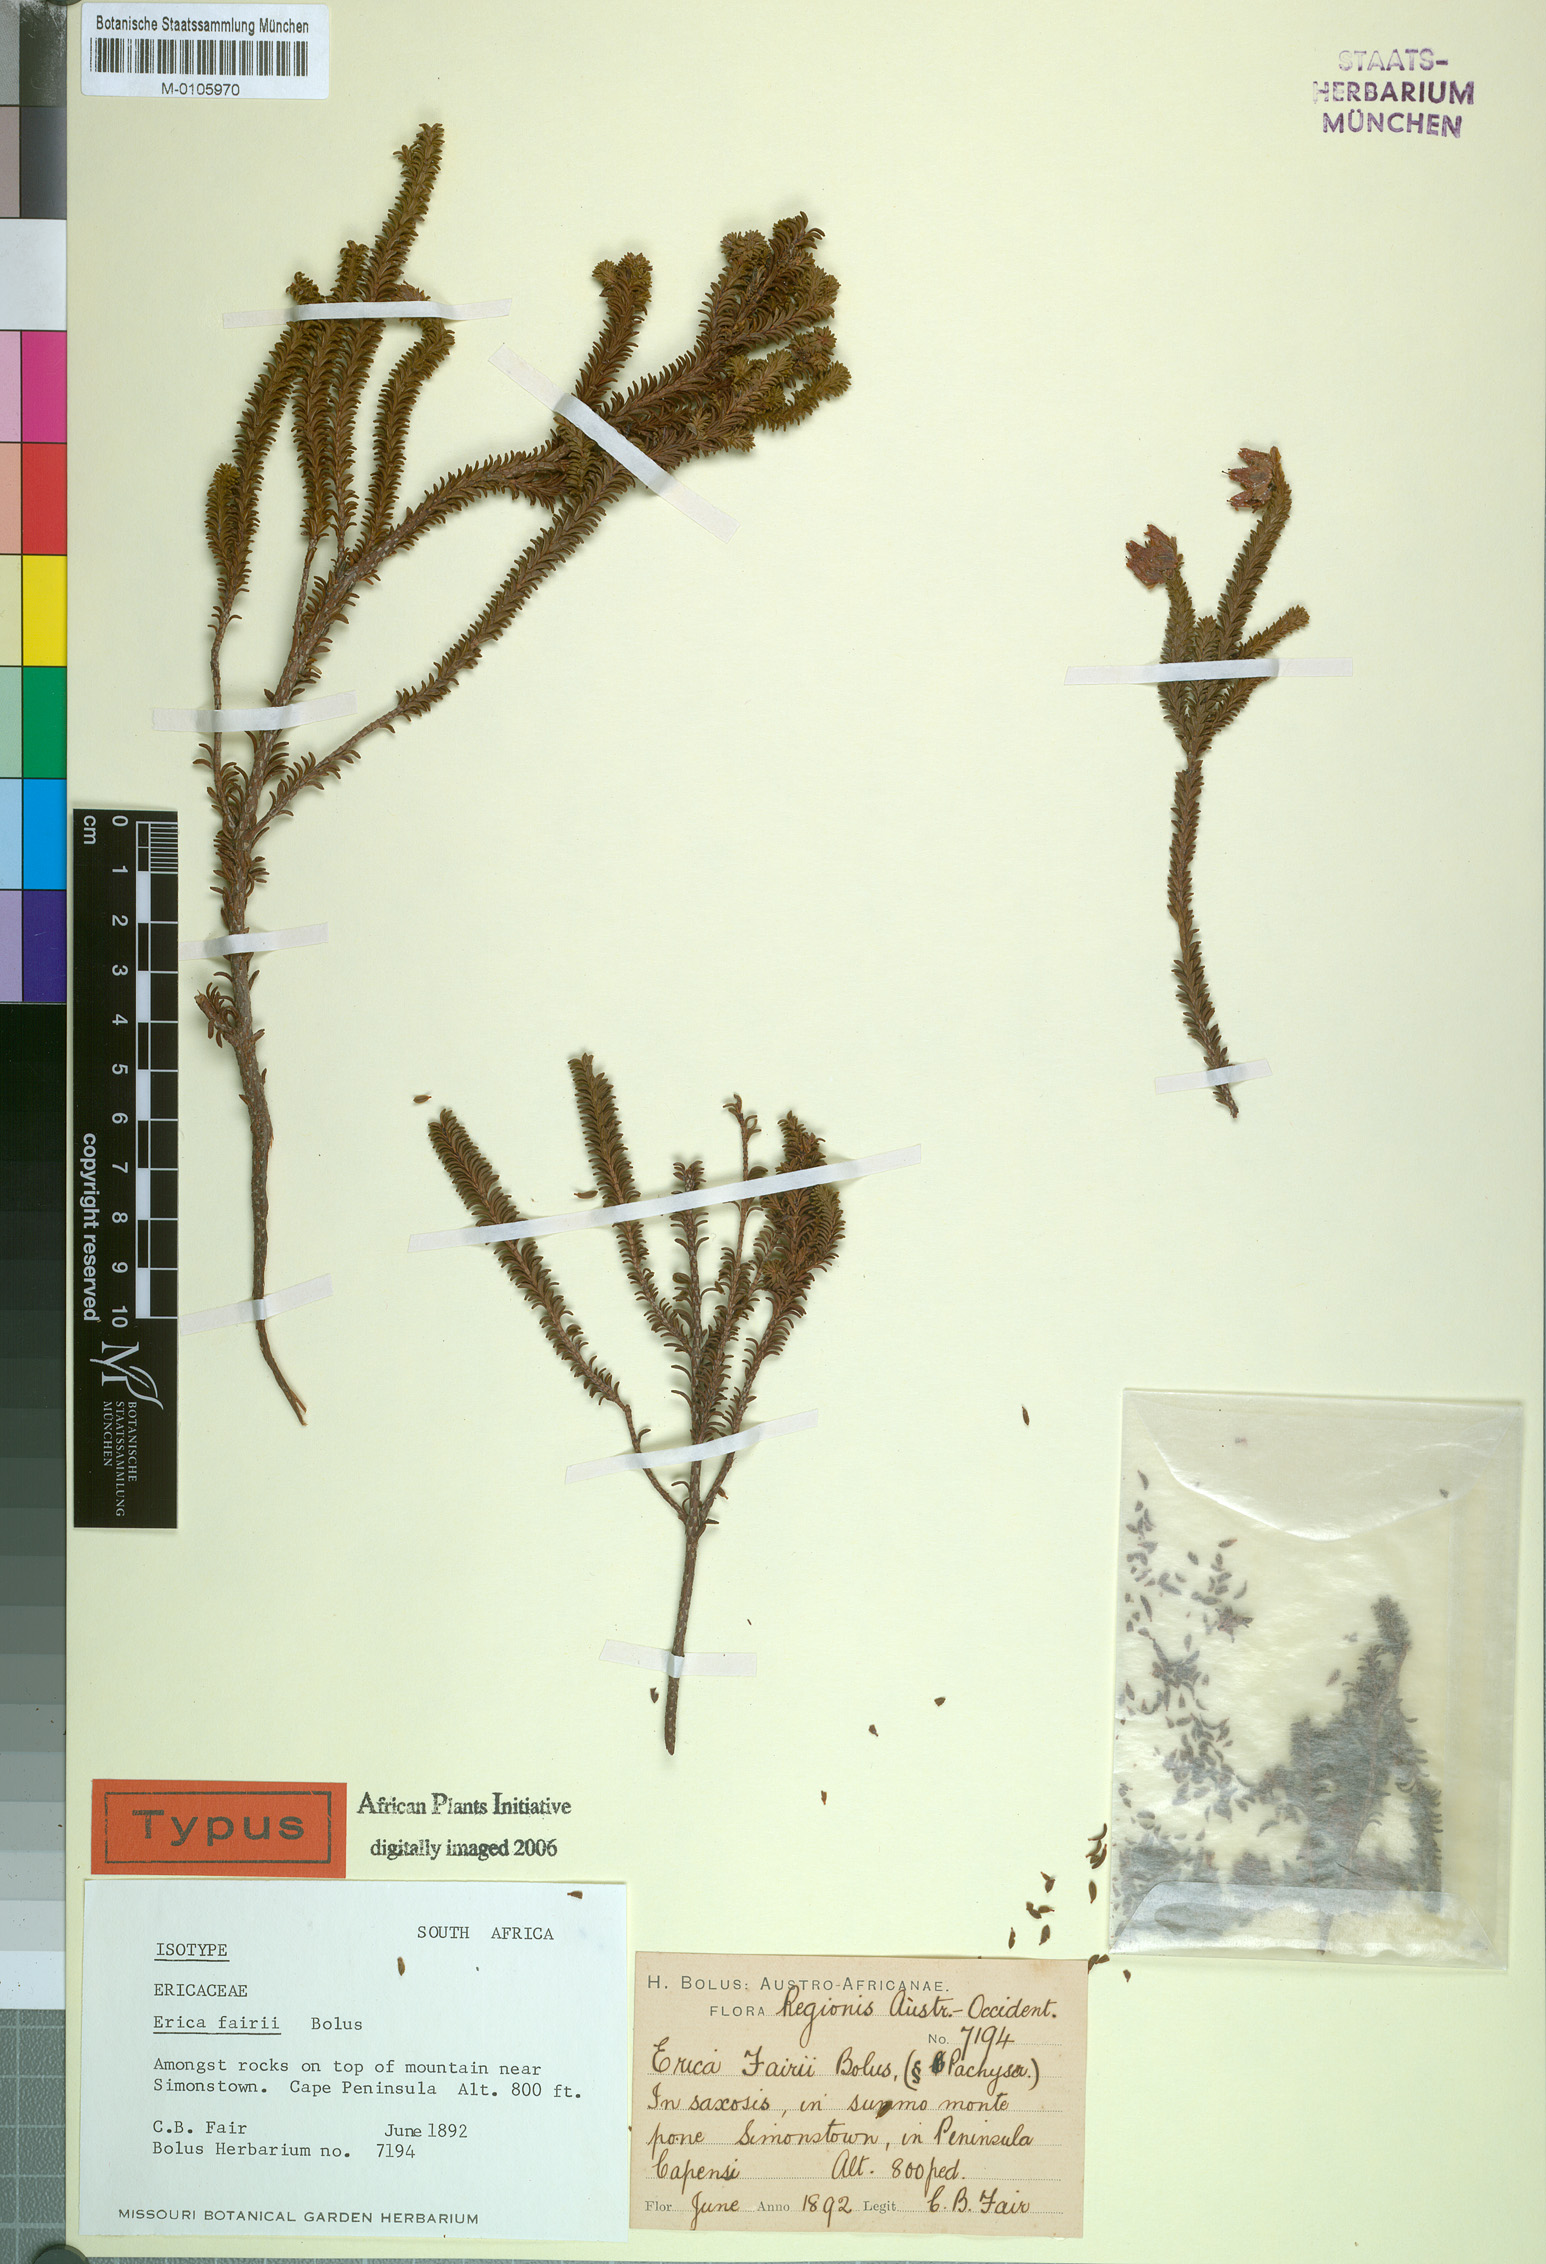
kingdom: Plantae
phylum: Tracheophyta
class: Magnoliopsida
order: Ericales
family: Ericaceae
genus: Erica
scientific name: Erica fairii
